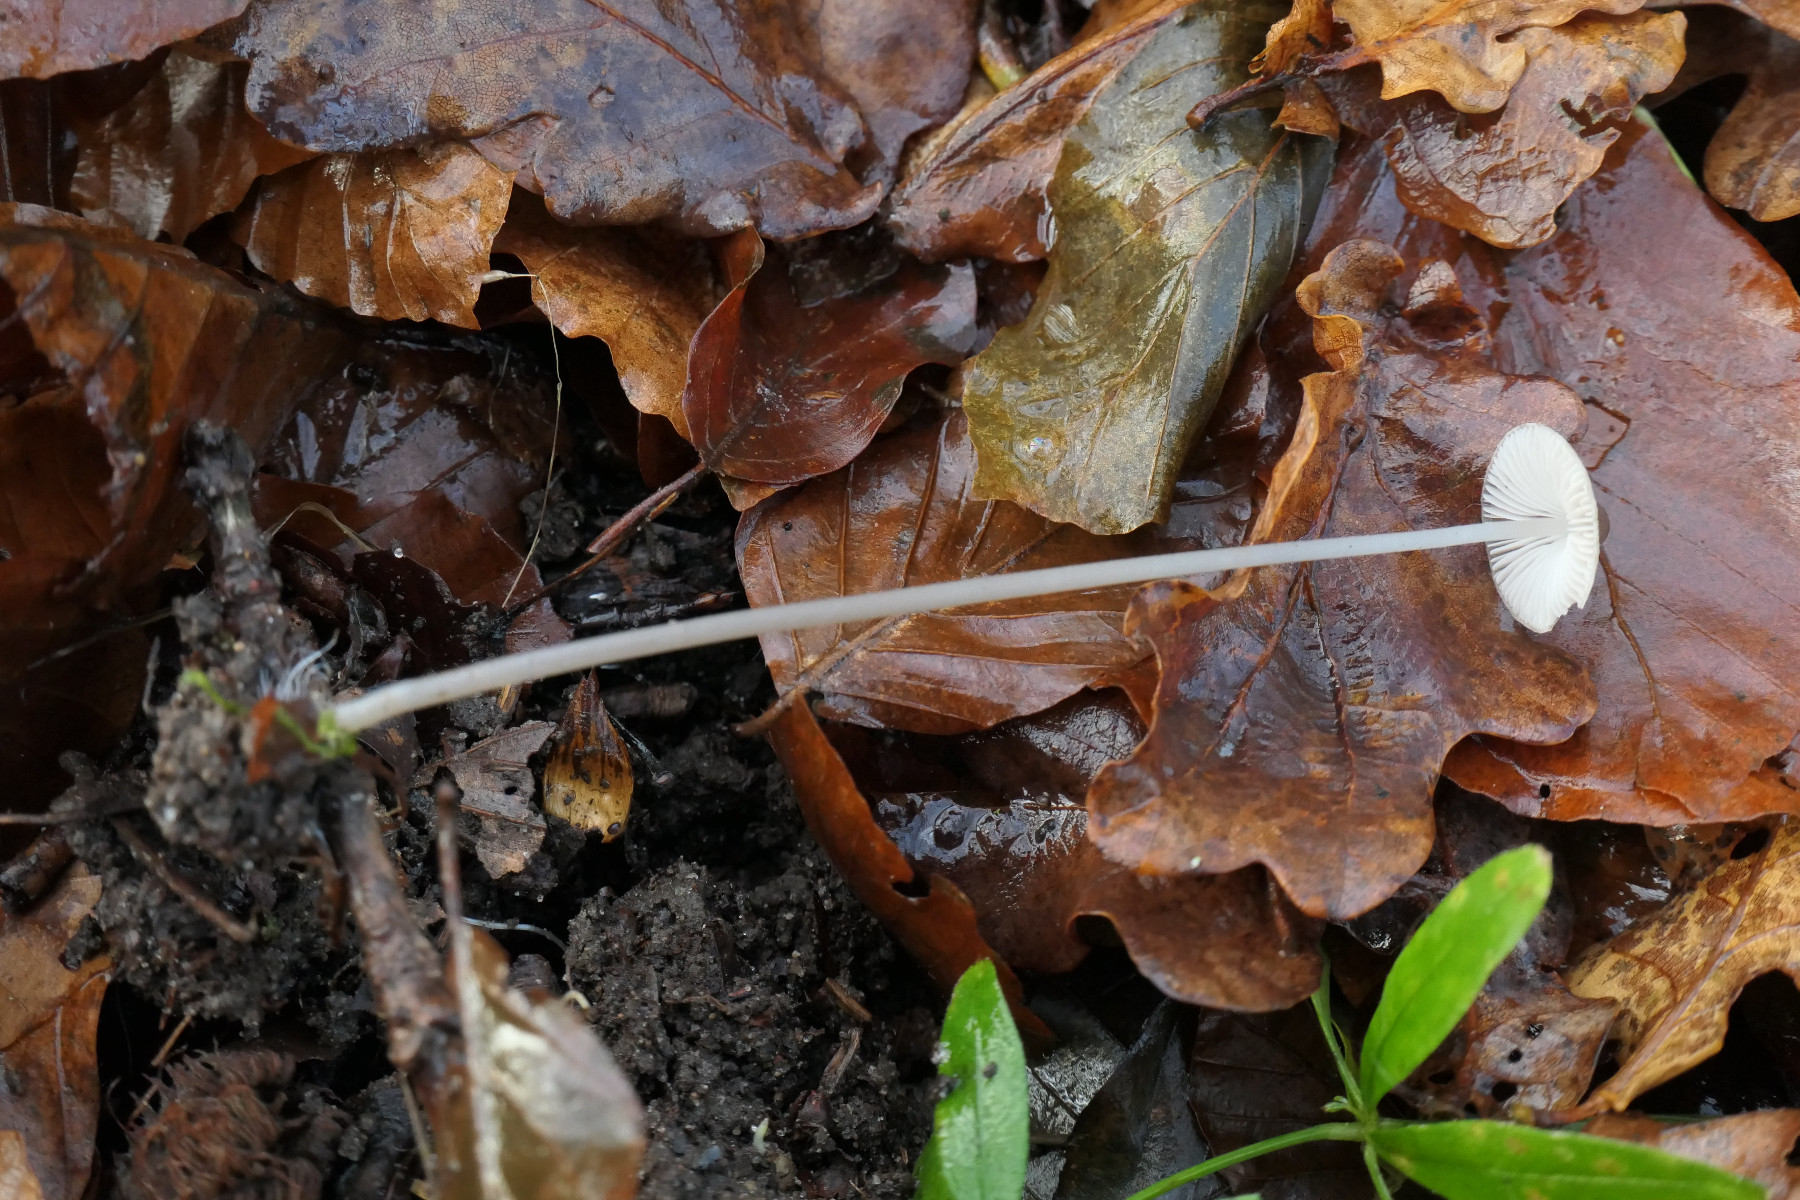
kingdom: Fungi
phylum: Basidiomycota
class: Agaricomycetes
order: Agaricales
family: Mycenaceae
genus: Mycena
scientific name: Mycena polygramma
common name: mangestribet huesvamp
